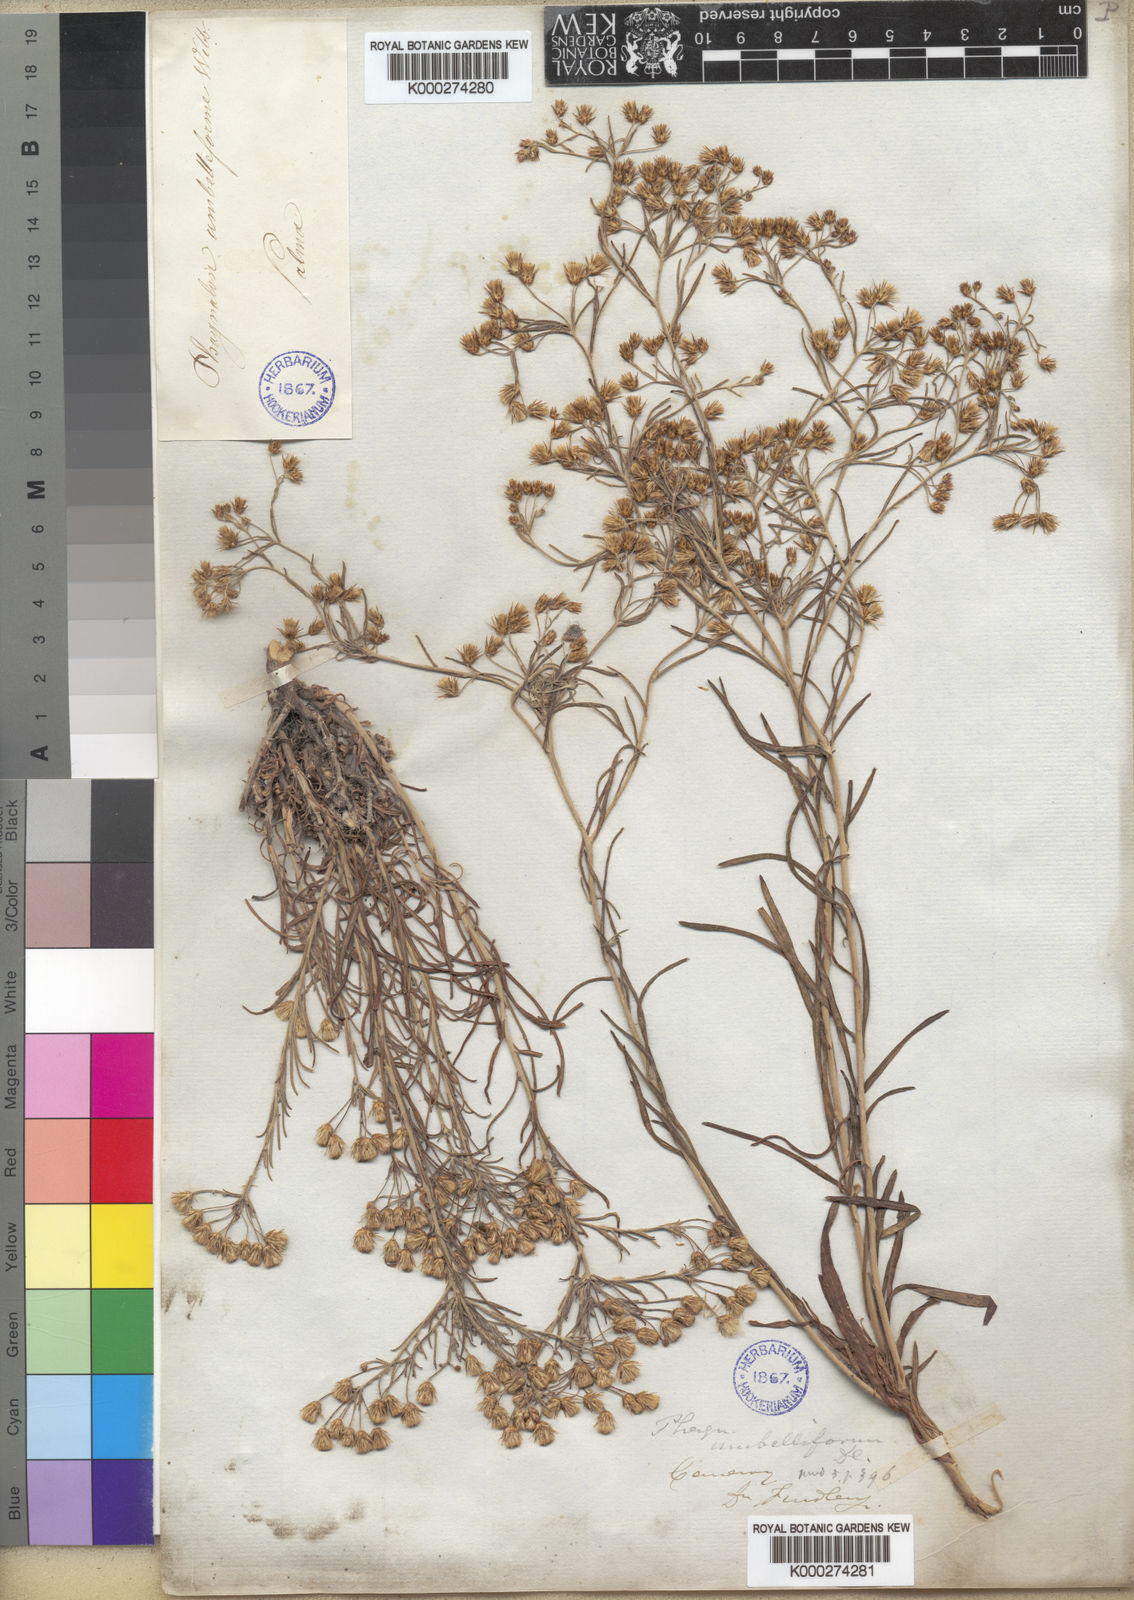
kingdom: Plantae
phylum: Tracheophyta
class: Magnoliopsida
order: Asterales
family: Asteraceae
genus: Phagnalon
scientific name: Phagnalon
